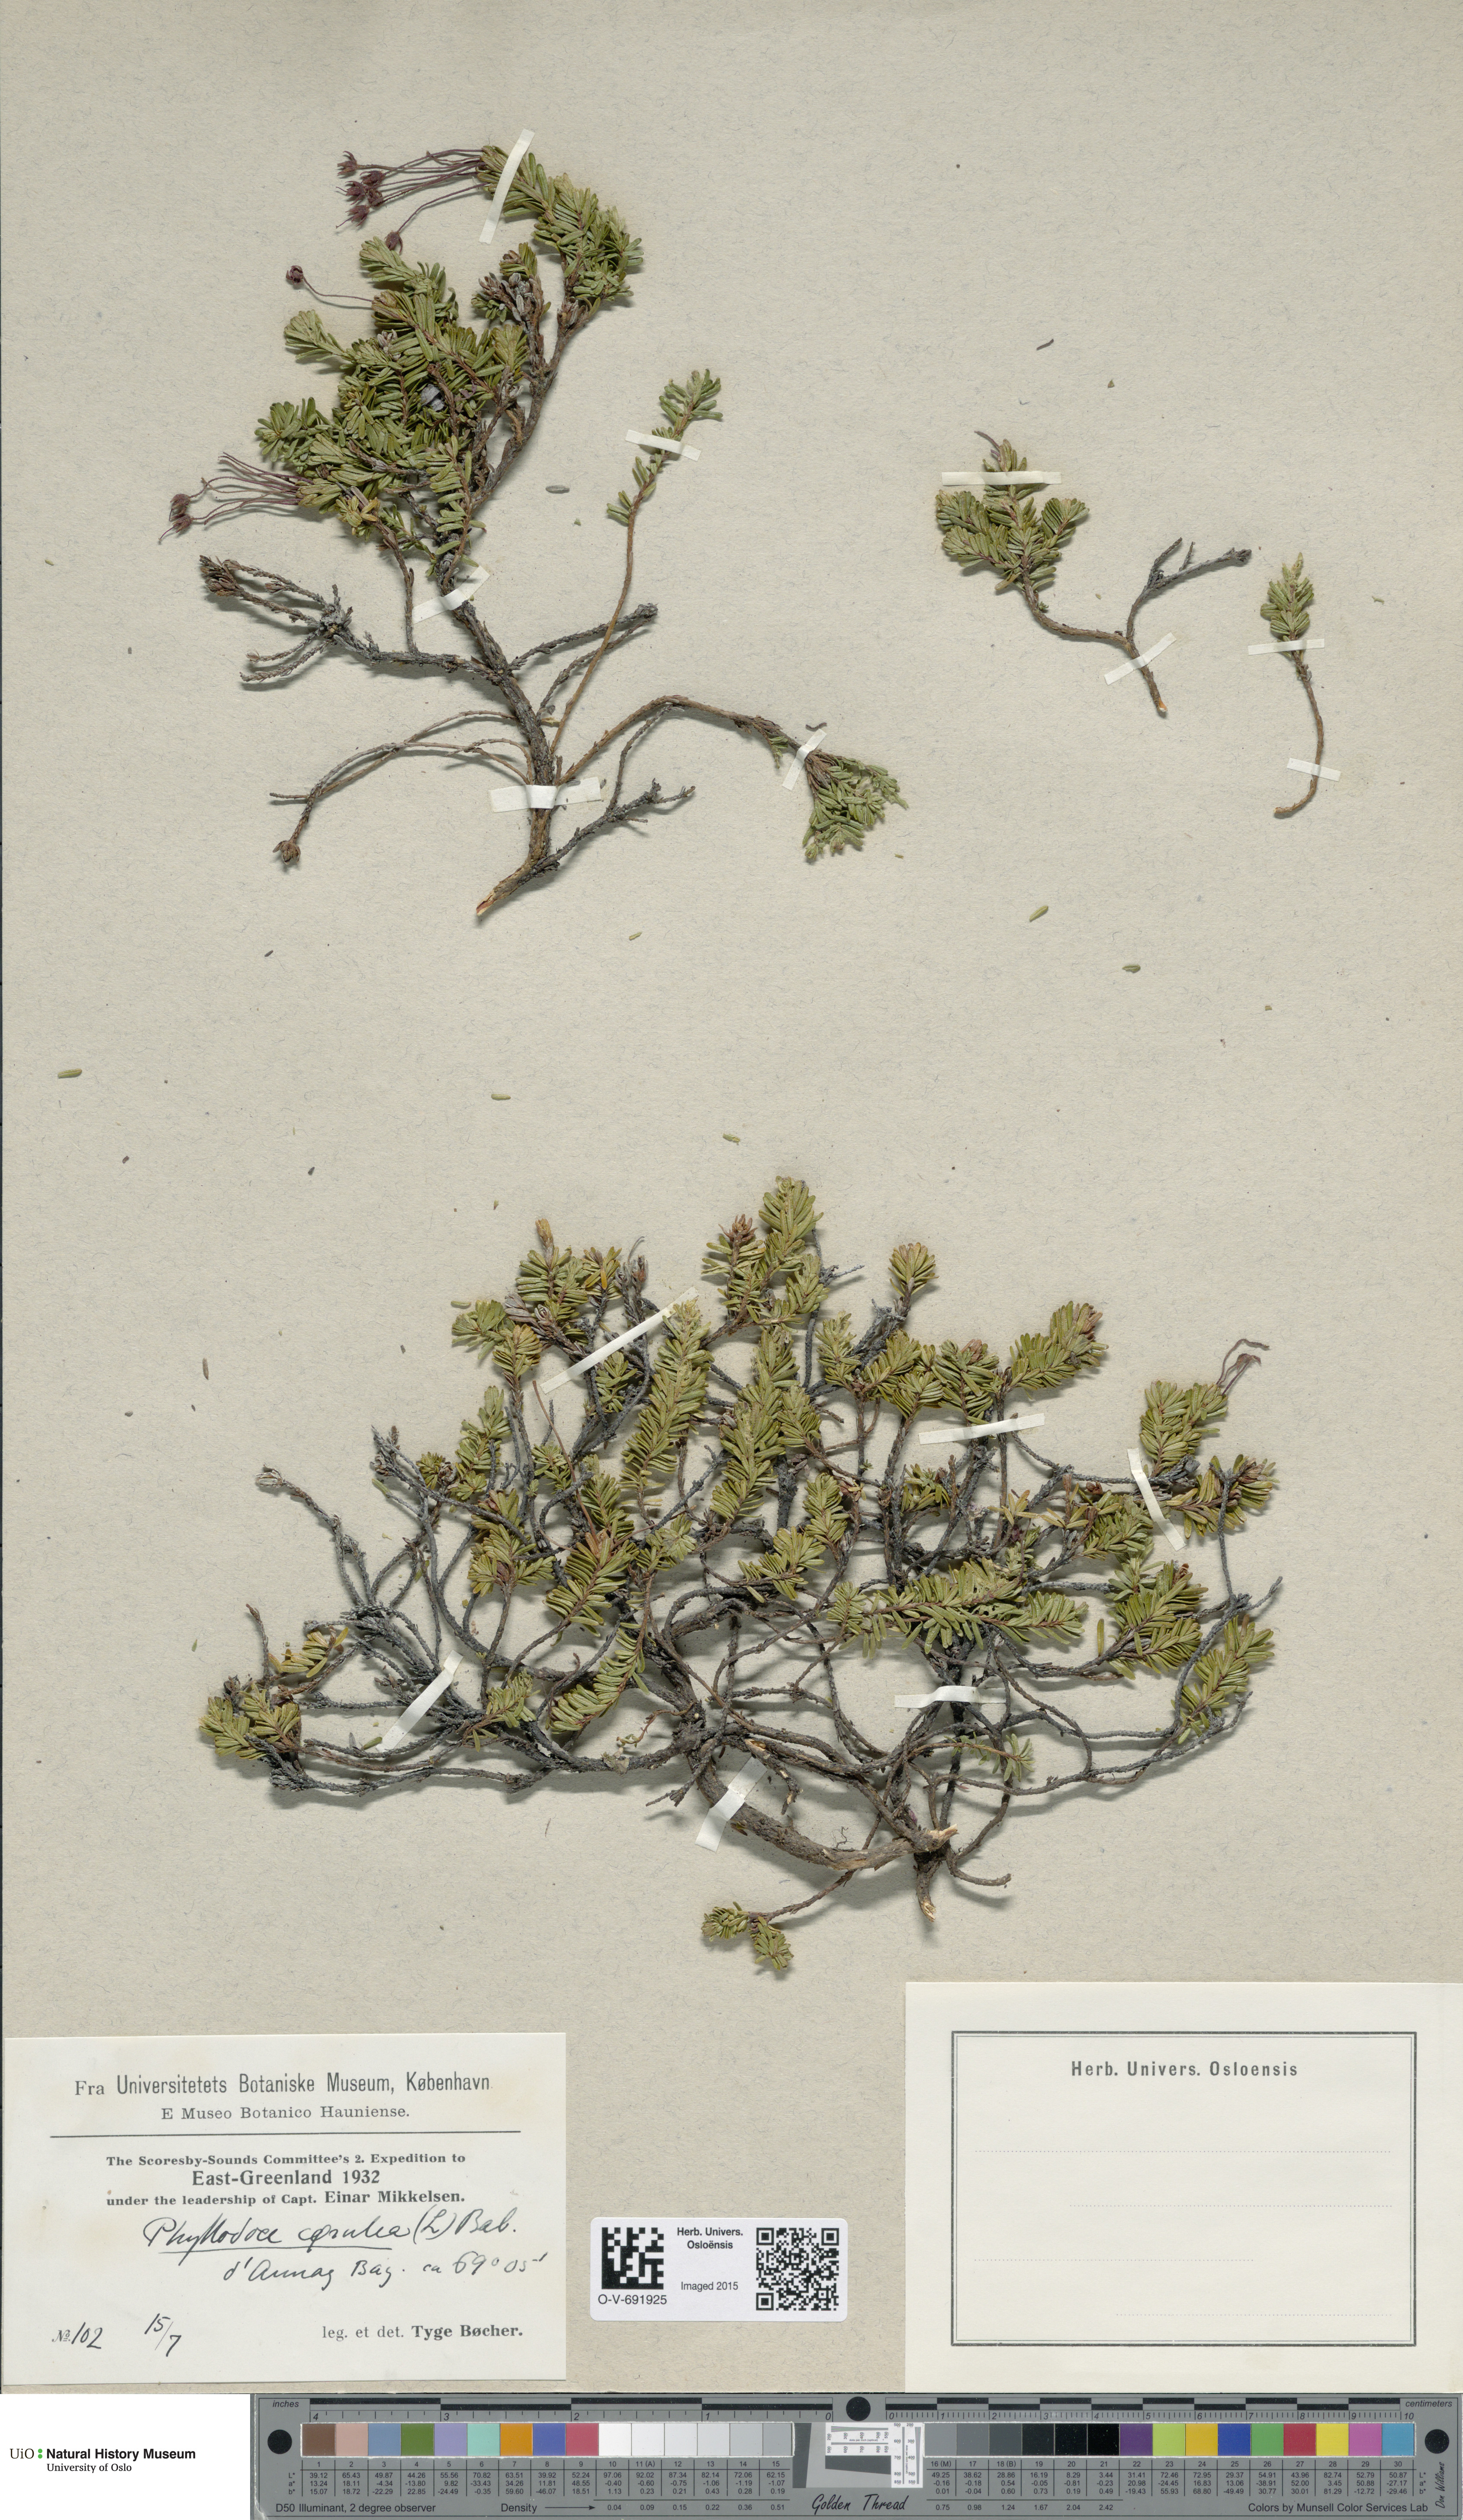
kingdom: Plantae
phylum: Tracheophyta
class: Magnoliopsida
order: Ericales
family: Ericaceae
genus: Phyllodoce
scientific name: Phyllodoce caerulea
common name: Blue heath
